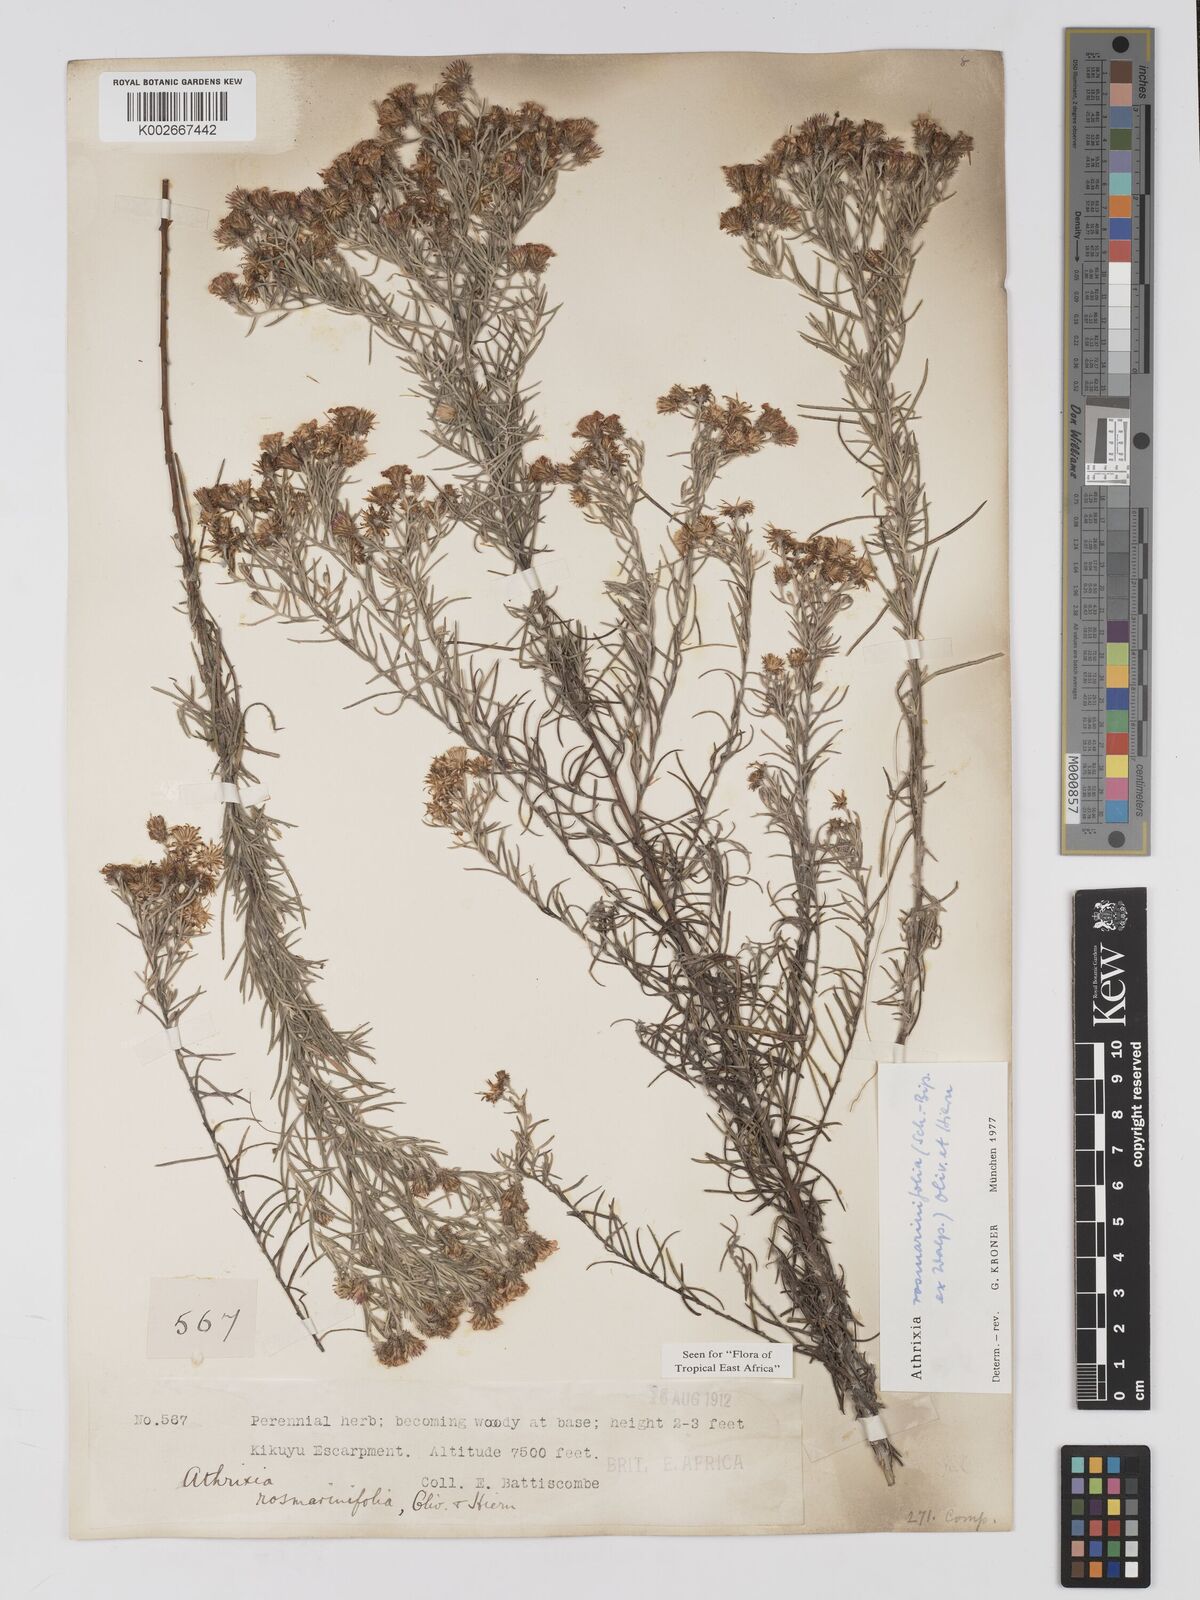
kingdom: Plantae
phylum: Tracheophyta
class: Magnoliopsida
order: Asterales
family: Asteraceae
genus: Athrixia
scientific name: Athrixia rosmarinifolia
